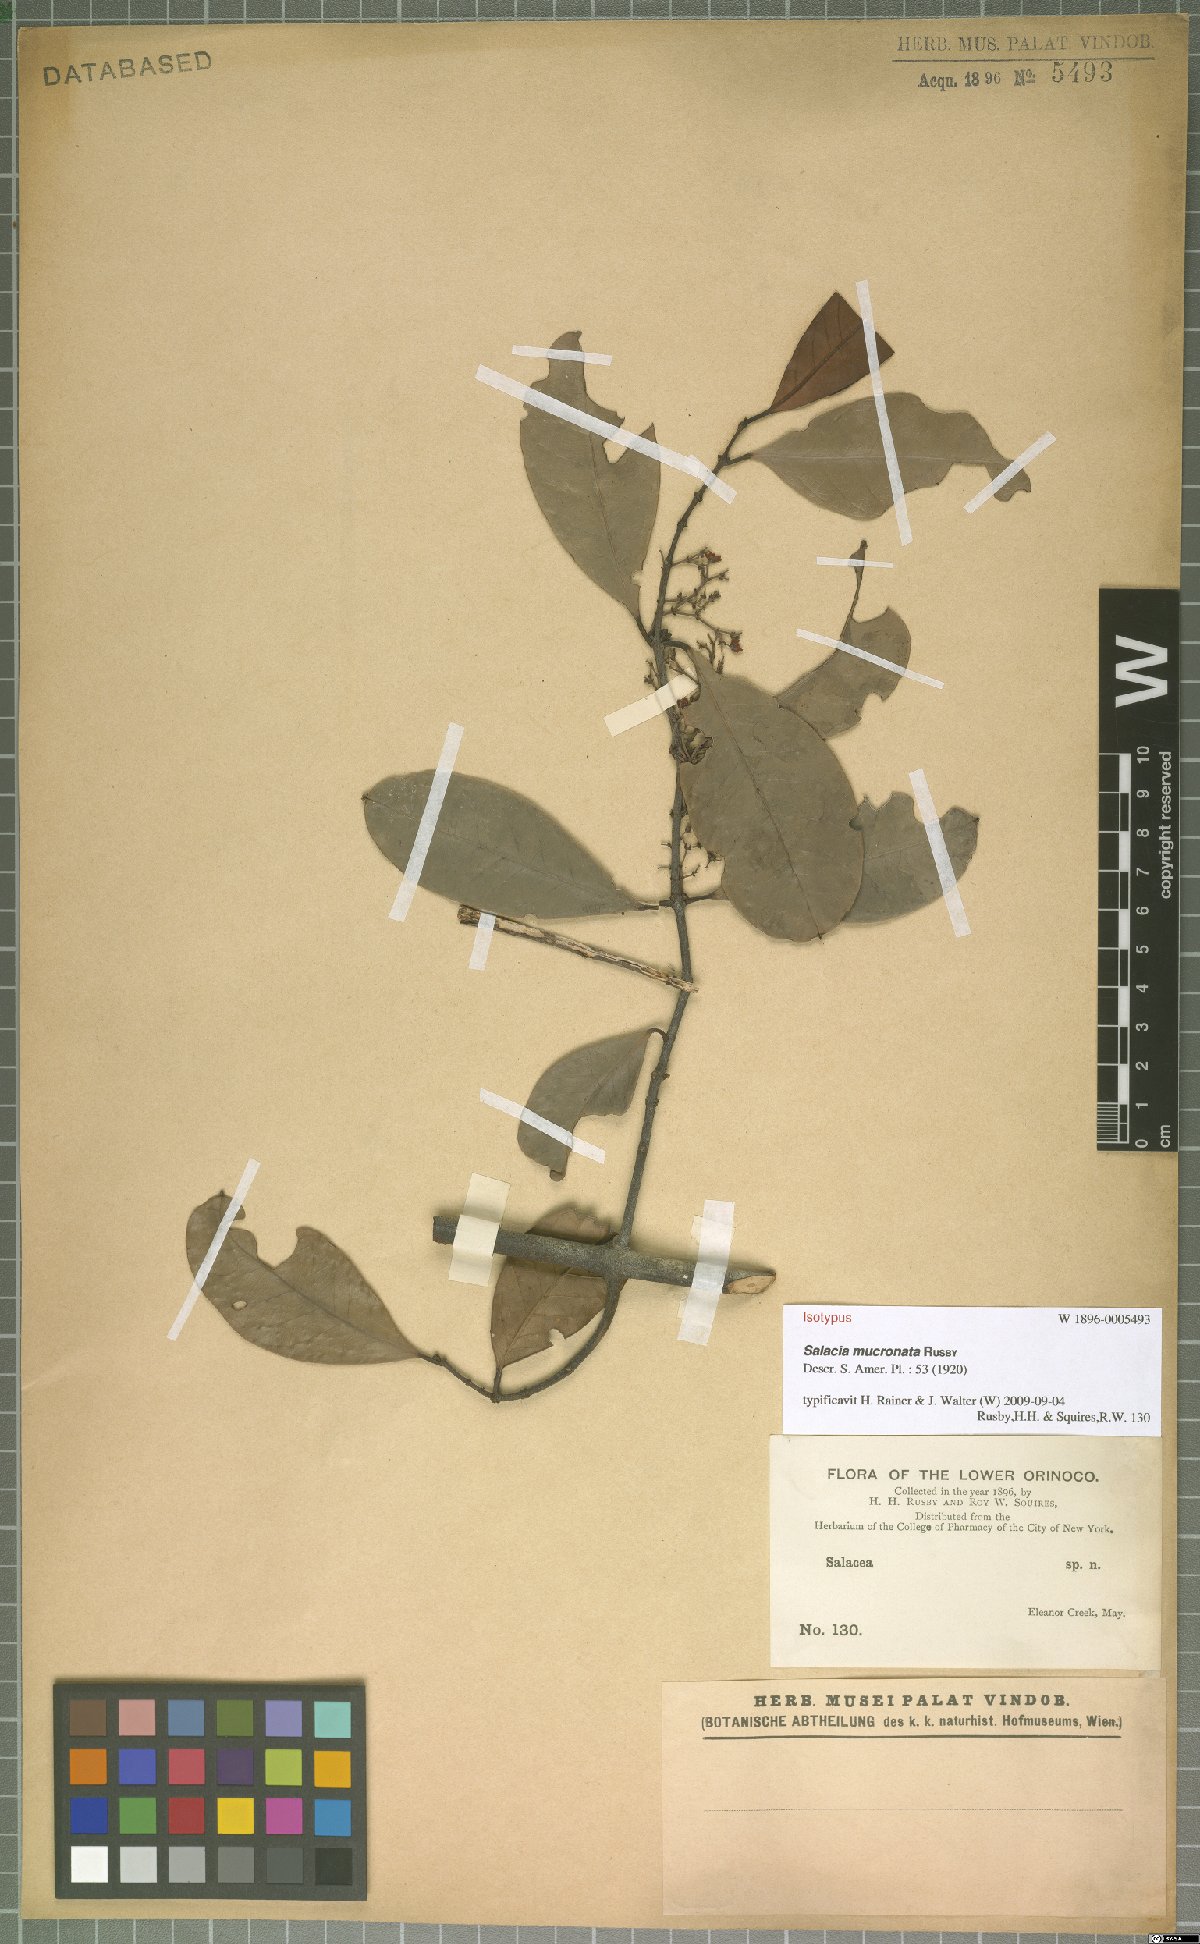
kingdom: Plantae
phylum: Tracheophyta
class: Magnoliopsida
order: Celastrales
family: Celastraceae
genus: Salacia
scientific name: Salacia multiflora
